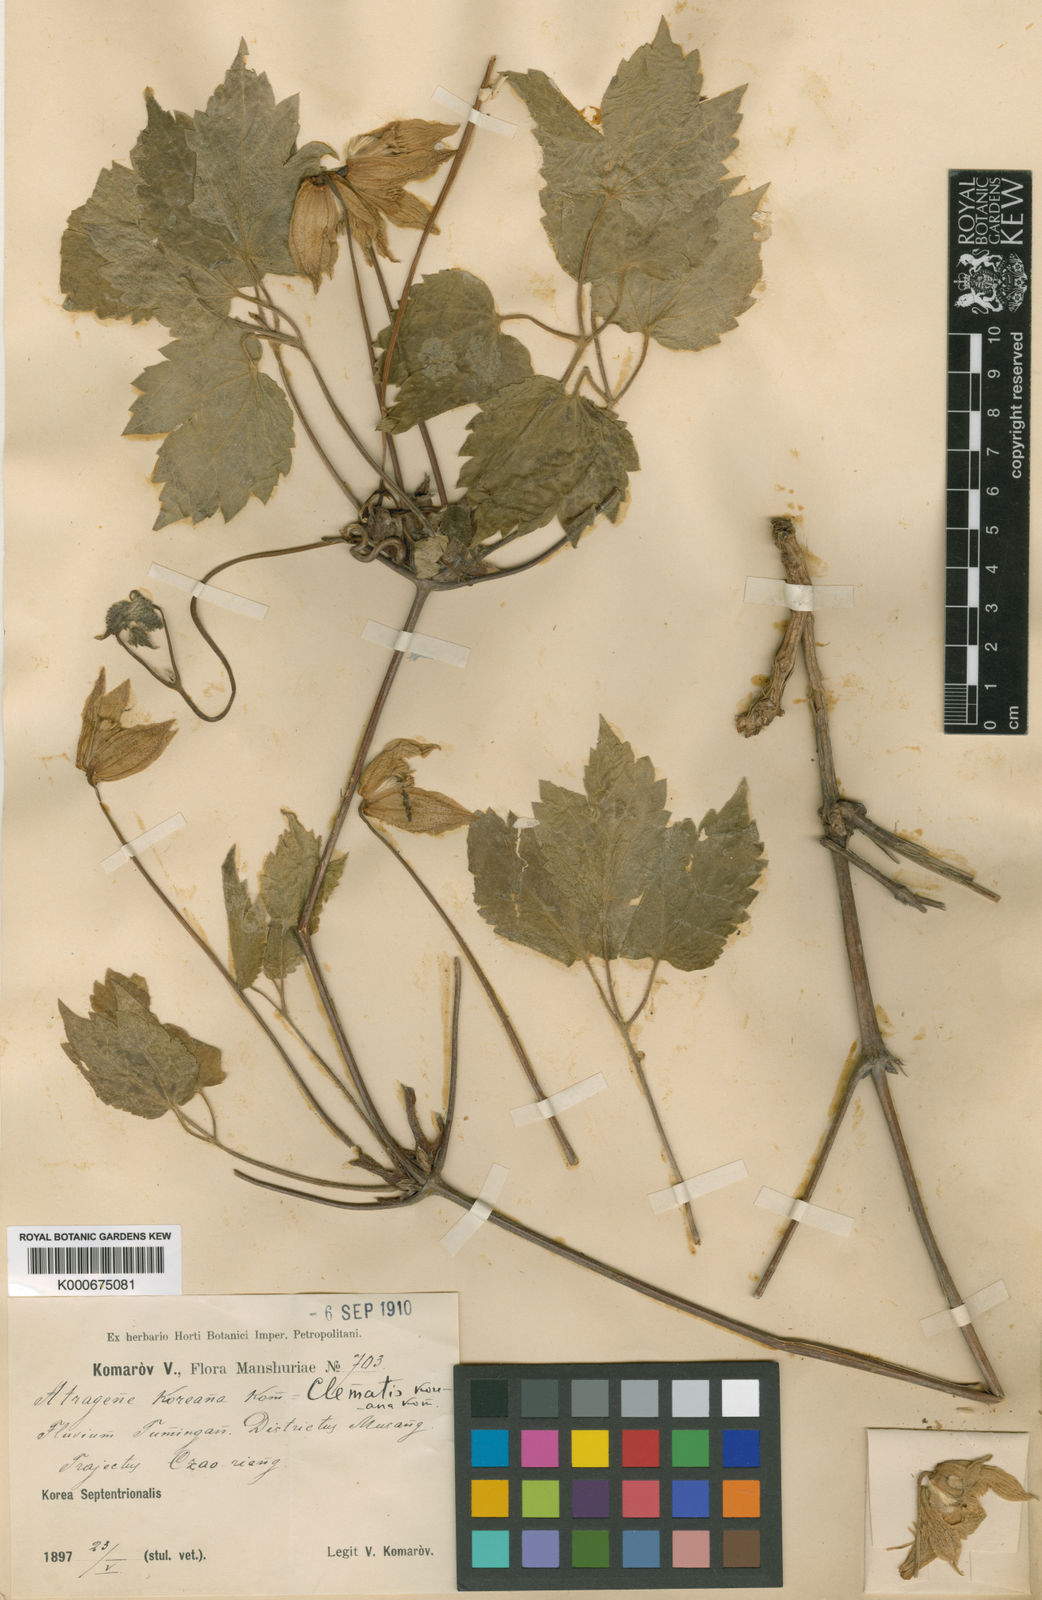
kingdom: Plantae
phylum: Tracheophyta
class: Magnoliopsida
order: Ranunculales
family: Ranunculaceae
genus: Clematis
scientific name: Clematis koreana
